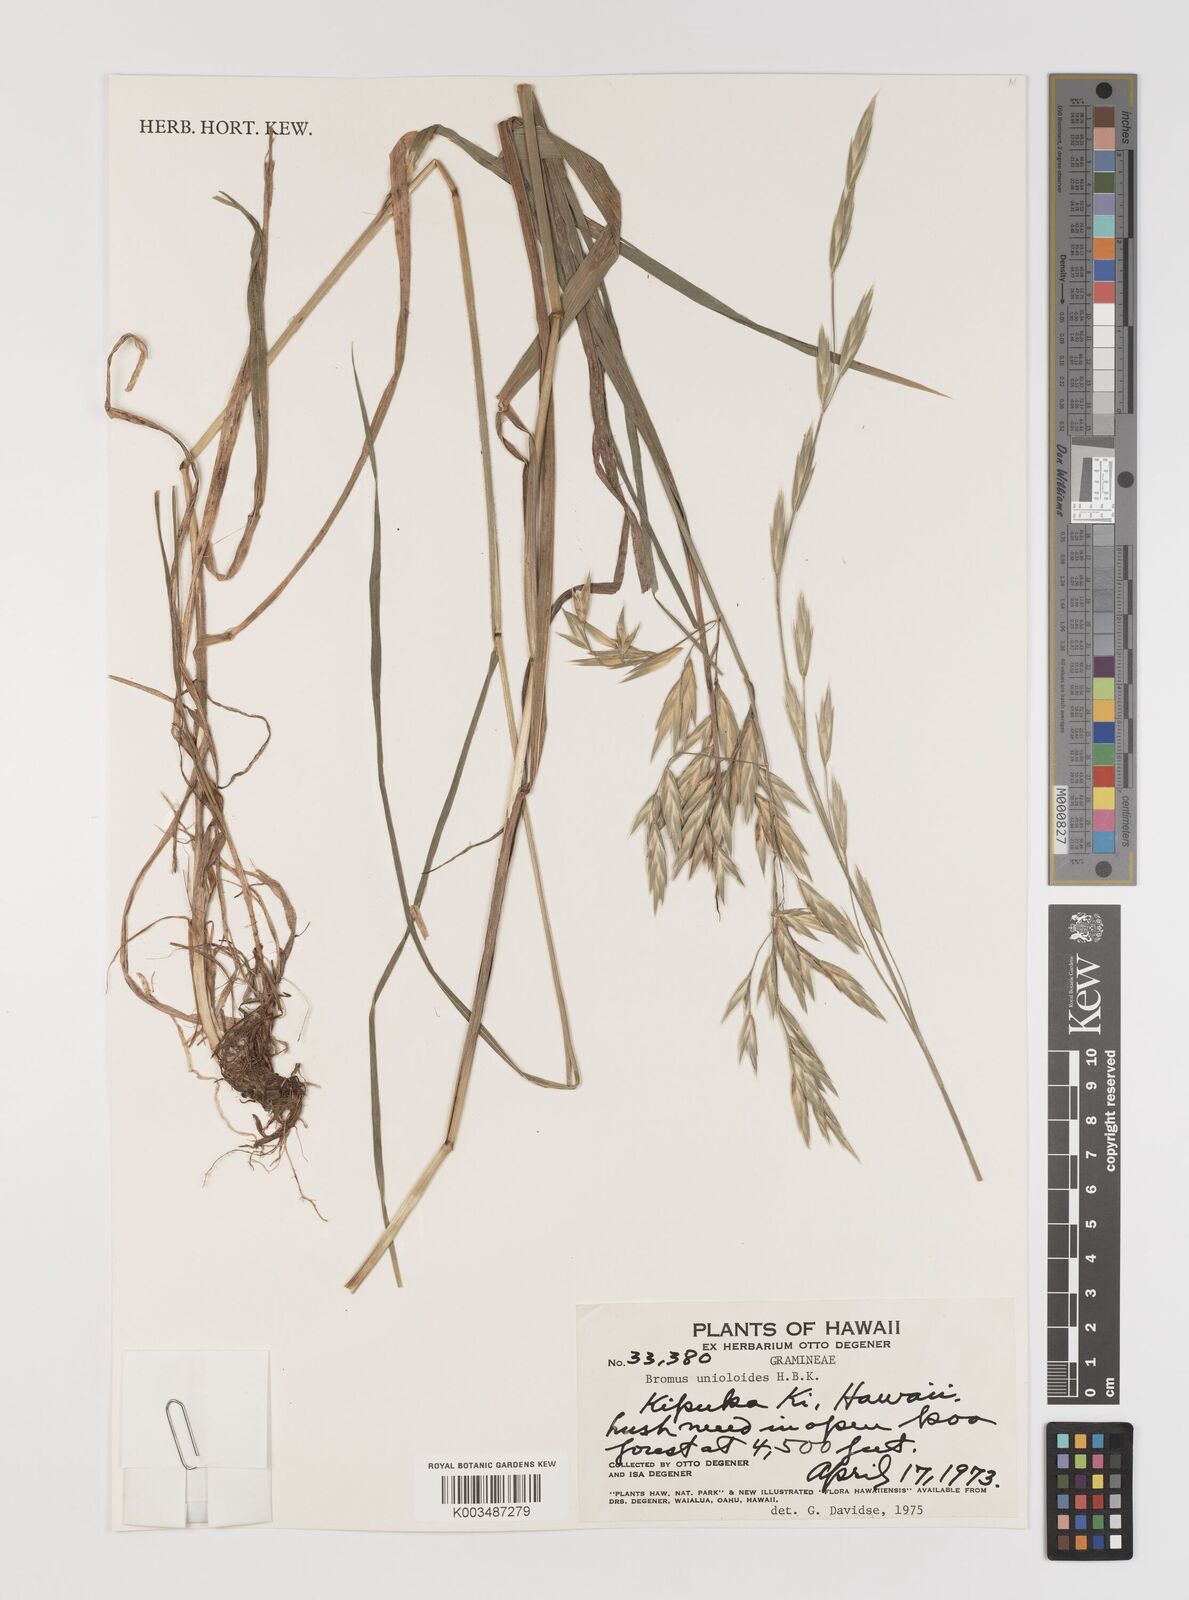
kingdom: Plantae
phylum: Tracheophyta
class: Liliopsida
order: Poales
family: Poaceae
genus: Bromus
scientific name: Bromus catharticus
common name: Rescuegrass
